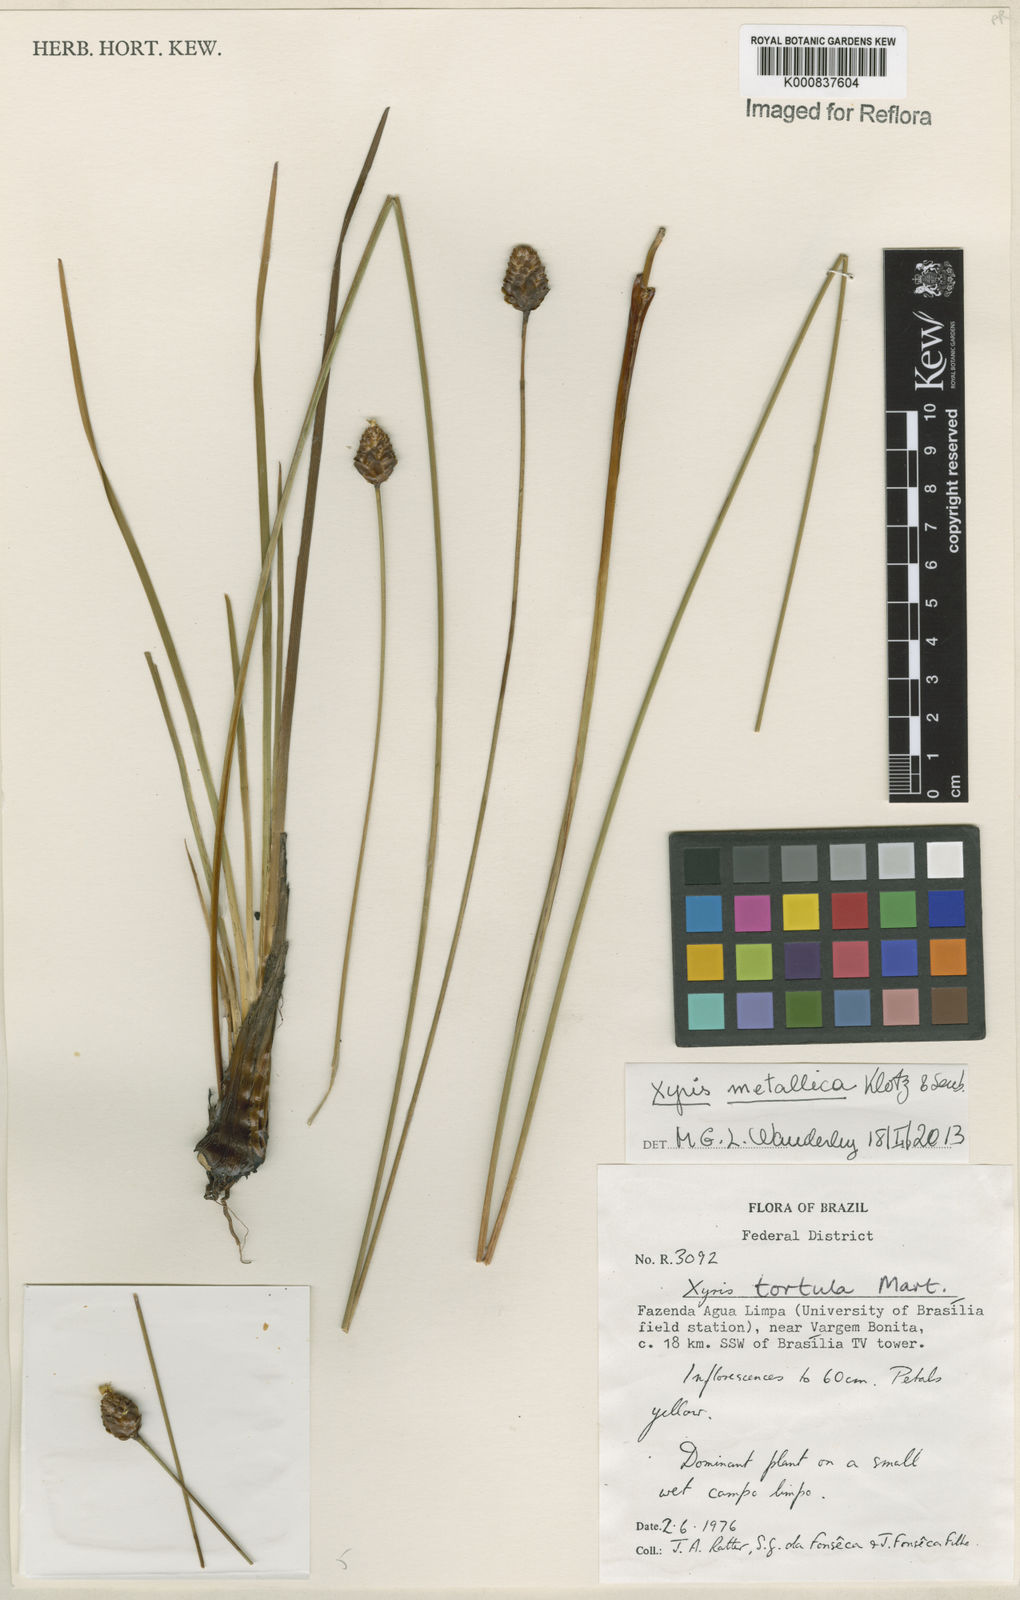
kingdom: Plantae
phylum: Tracheophyta
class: Liliopsida
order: Poales
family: Xyridaceae
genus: Xyris
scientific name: Xyris
